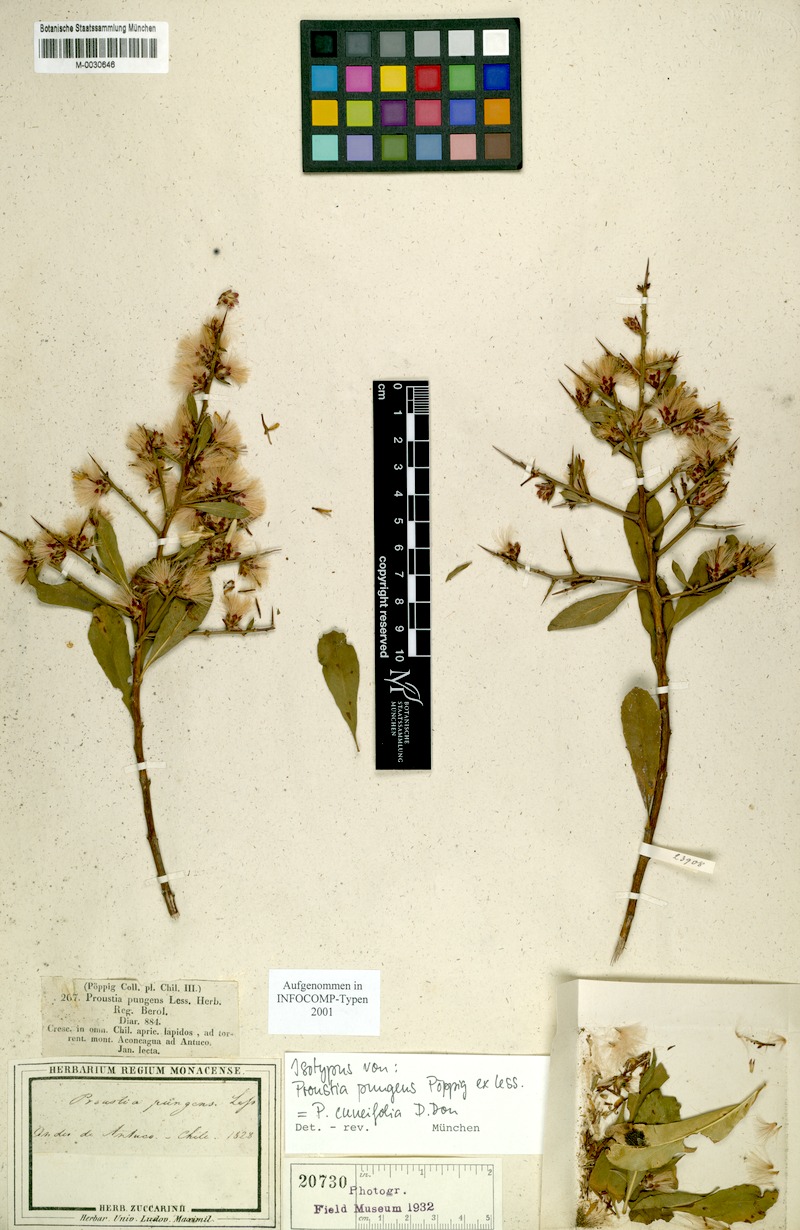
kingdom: Plantae
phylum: Tracheophyta
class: Magnoliopsida
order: Asterales
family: Asteraceae
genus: Spinoliva
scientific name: Spinoliva ilicifolia
